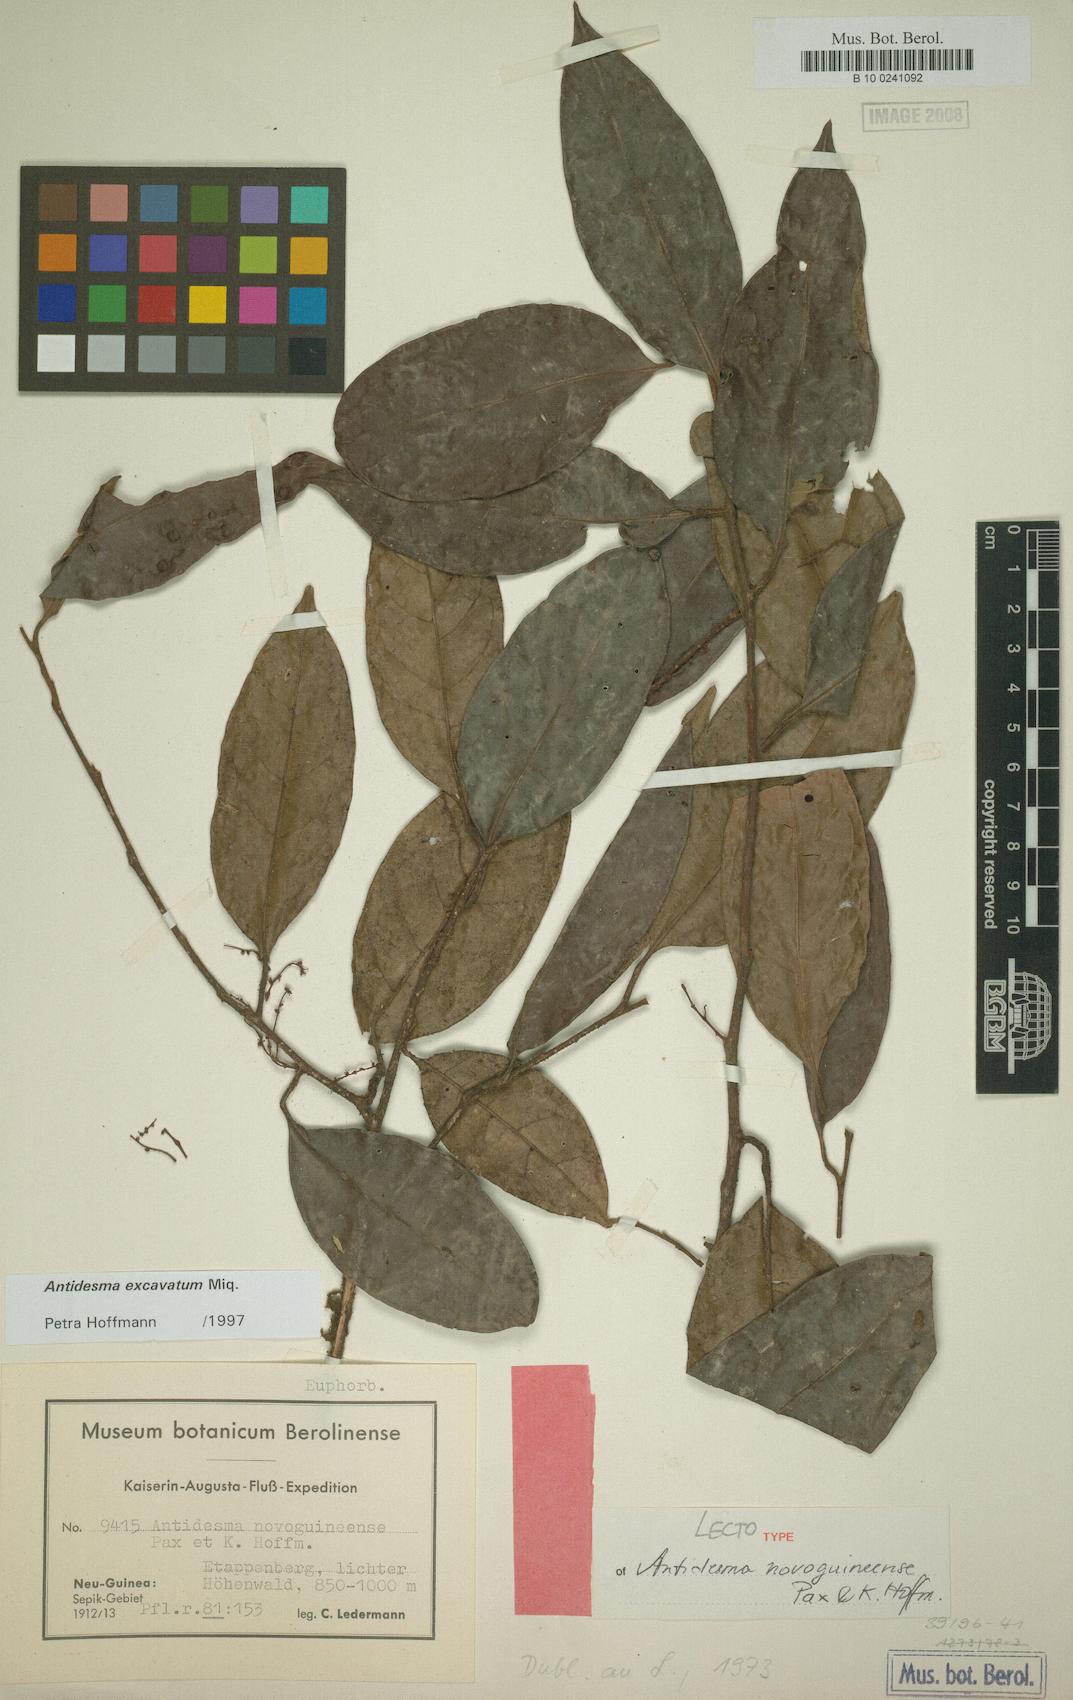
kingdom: Plantae
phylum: Tracheophyta
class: Magnoliopsida
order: Malpighiales
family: Phyllanthaceae
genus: Antidesma
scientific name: Antidesma excavatum
